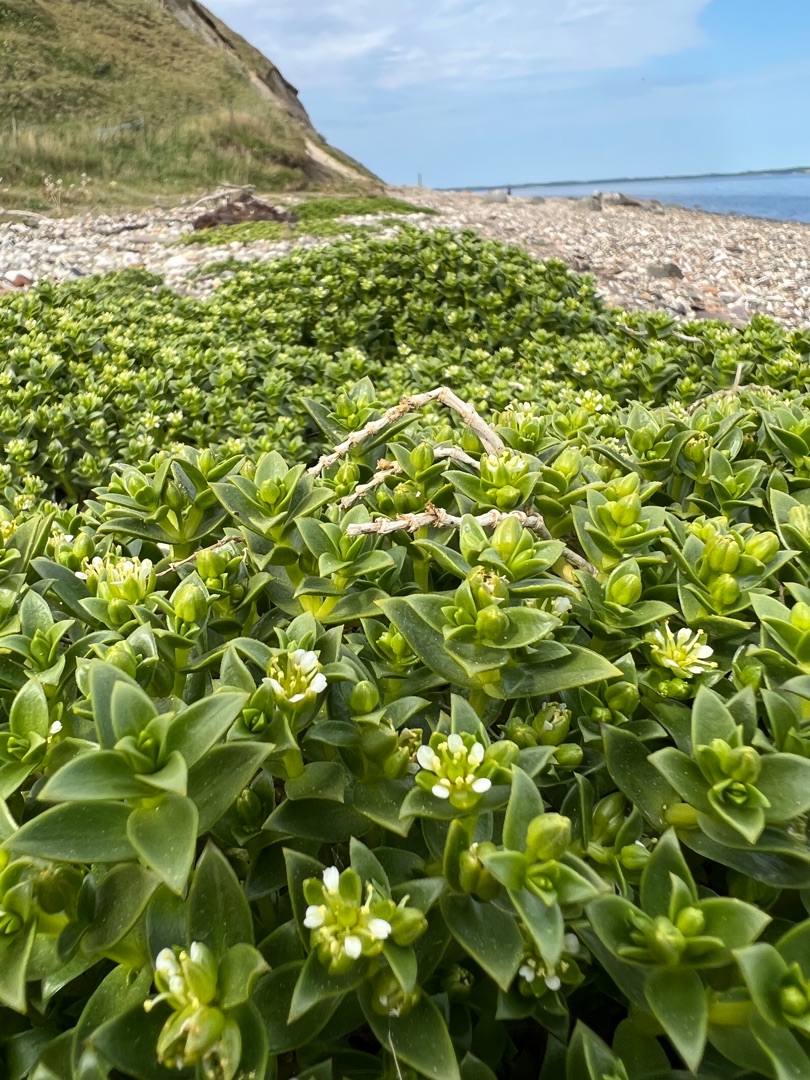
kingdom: Plantae
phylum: Tracheophyta
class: Magnoliopsida
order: Caryophyllales
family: Caryophyllaceae
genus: Honckenya
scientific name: Honckenya peploides
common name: Strandarve
